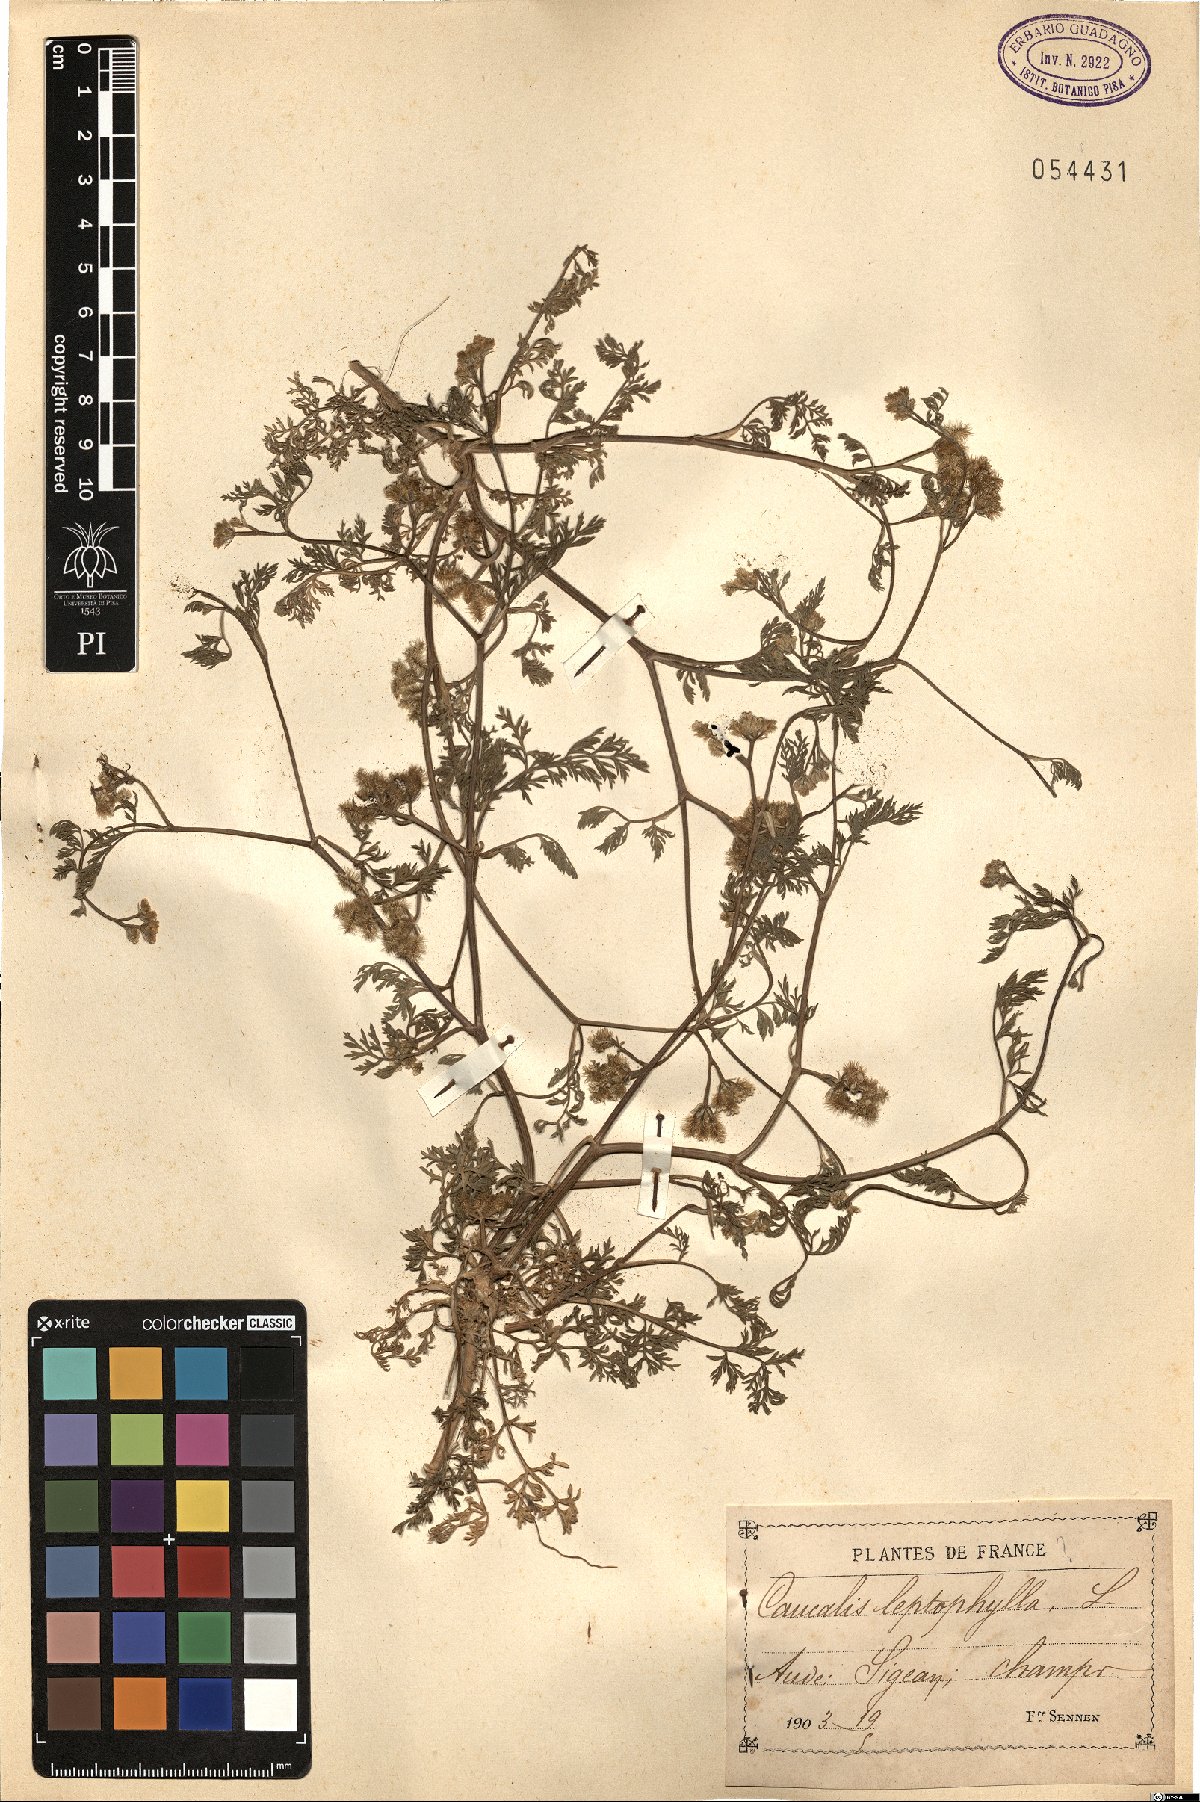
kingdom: Plantae
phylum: Tracheophyta
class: Magnoliopsida
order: Apiales
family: Apiaceae
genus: Torilis
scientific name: Torilis leptophylla
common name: Bristlefruit hedgeparsley
